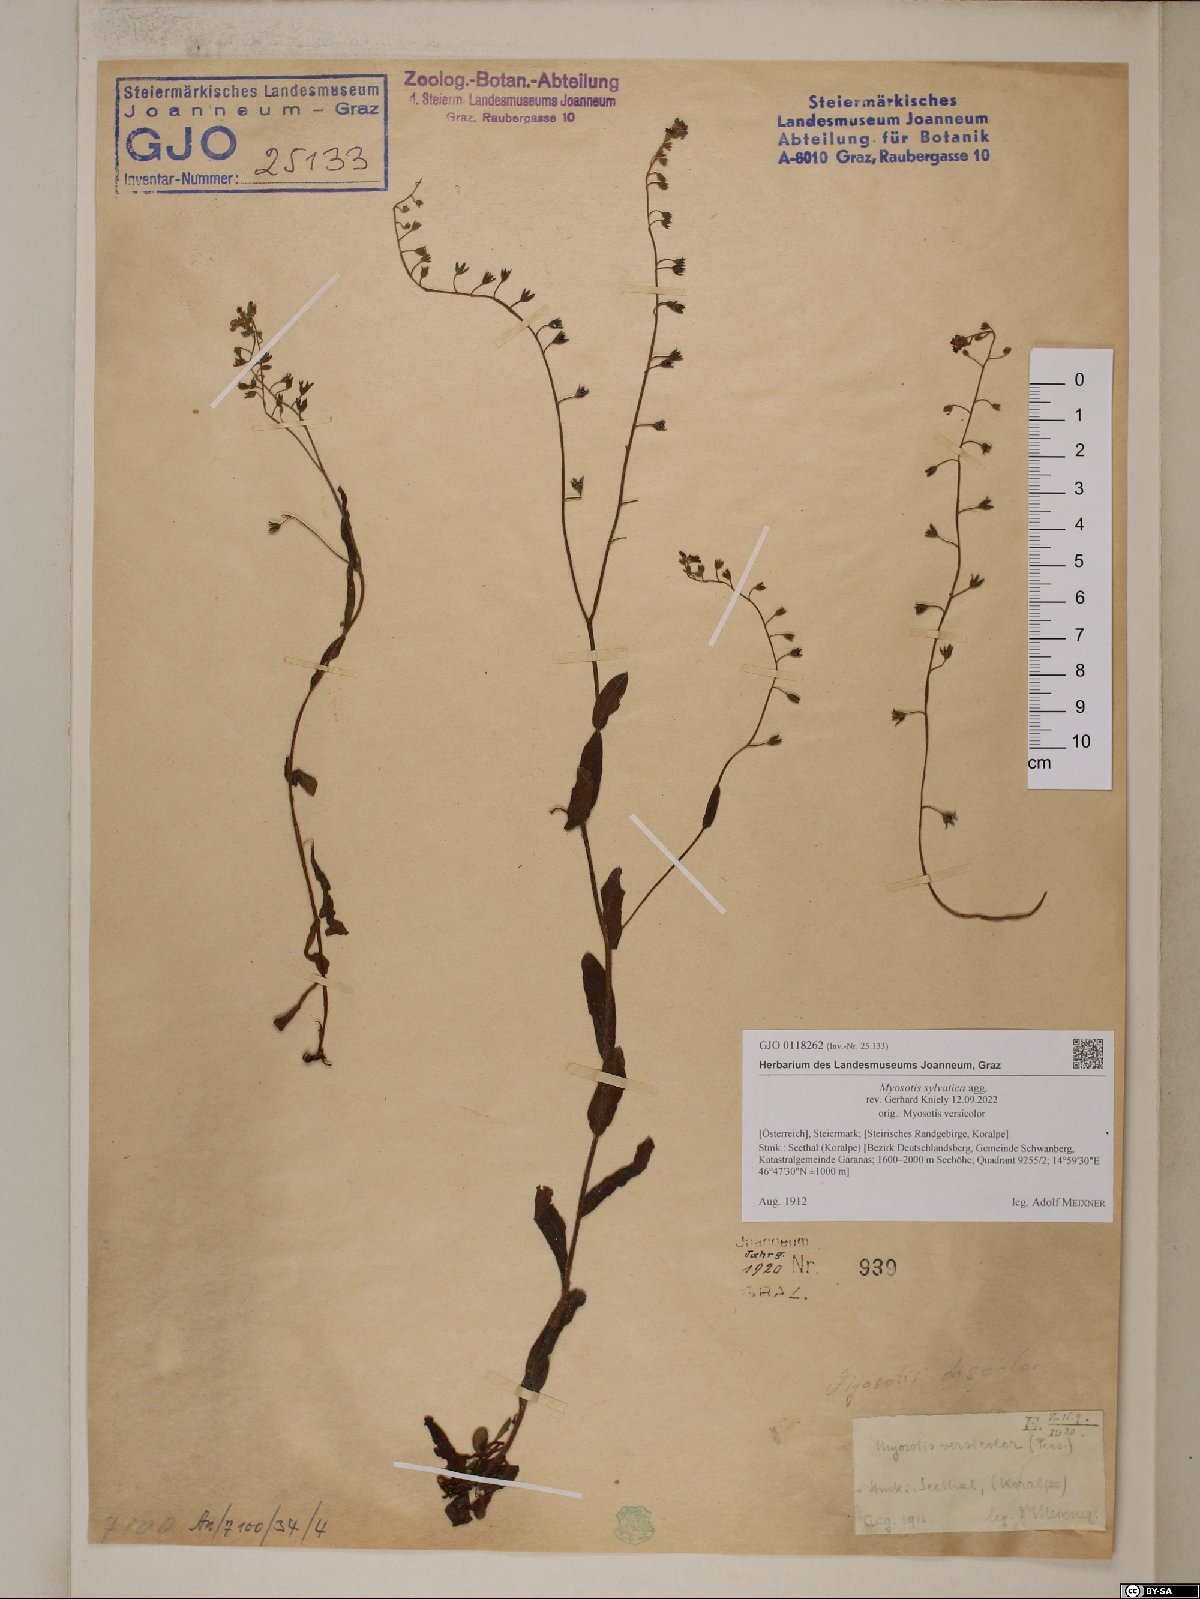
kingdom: Plantae
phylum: Tracheophyta
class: Magnoliopsida
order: Boraginales
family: Boraginaceae
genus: Myosotis
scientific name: Myosotis sylvatica
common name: Wood forget-me-not
